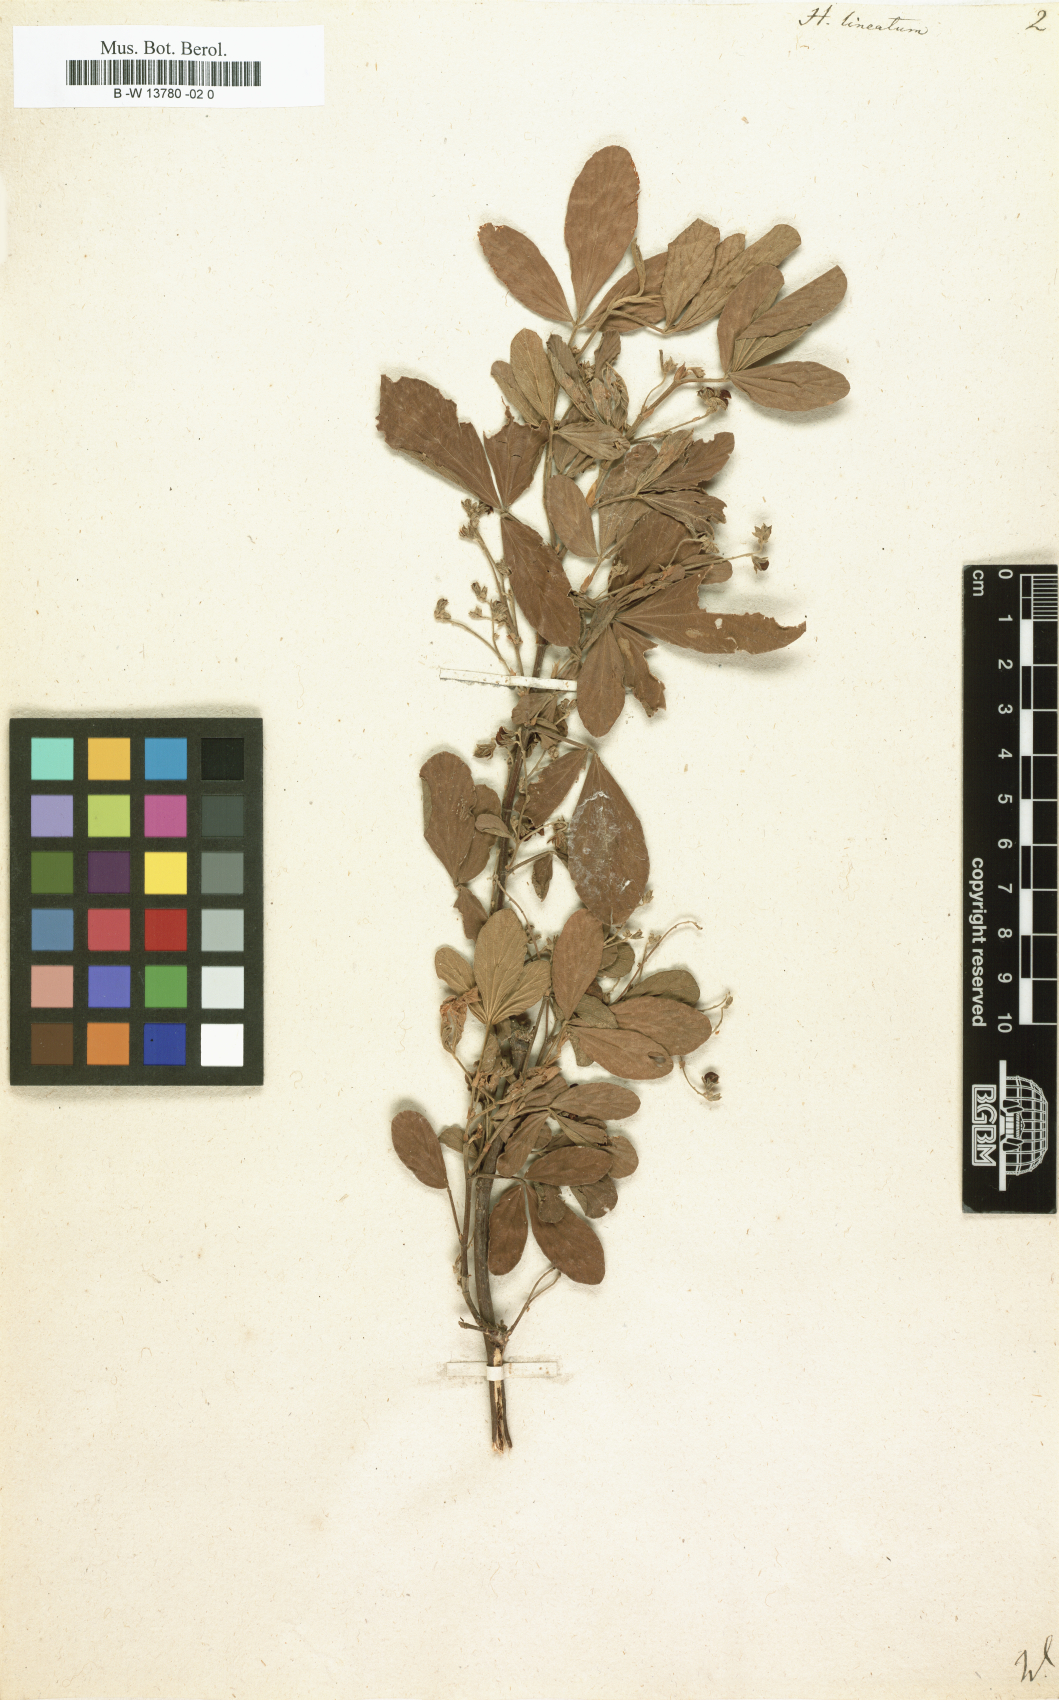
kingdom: Plantae
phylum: Tracheophyta
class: Magnoliopsida
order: Fabales
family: Fabaceae
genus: Flemingia
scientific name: Flemingia lineata
